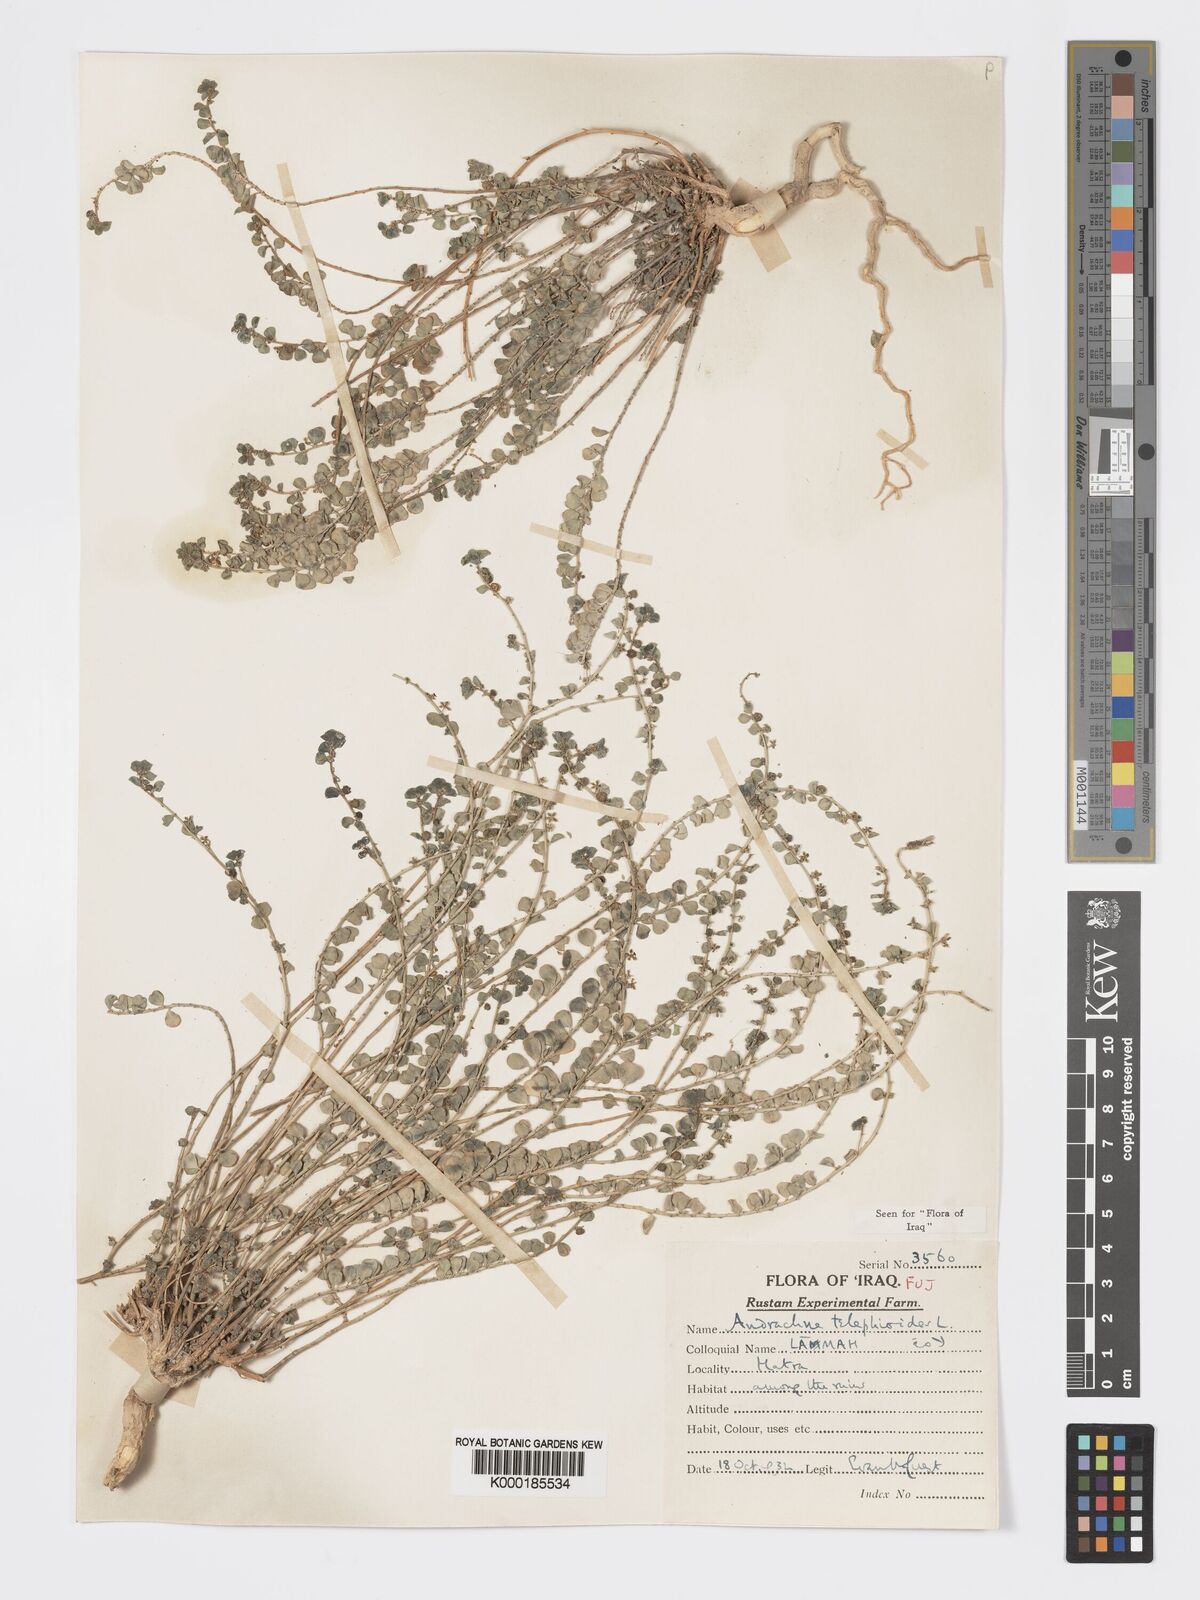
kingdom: Plantae
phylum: Tracheophyta
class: Magnoliopsida
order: Malpighiales
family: Phyllanthaceae
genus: Andrachne
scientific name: Andrachne telephioides
